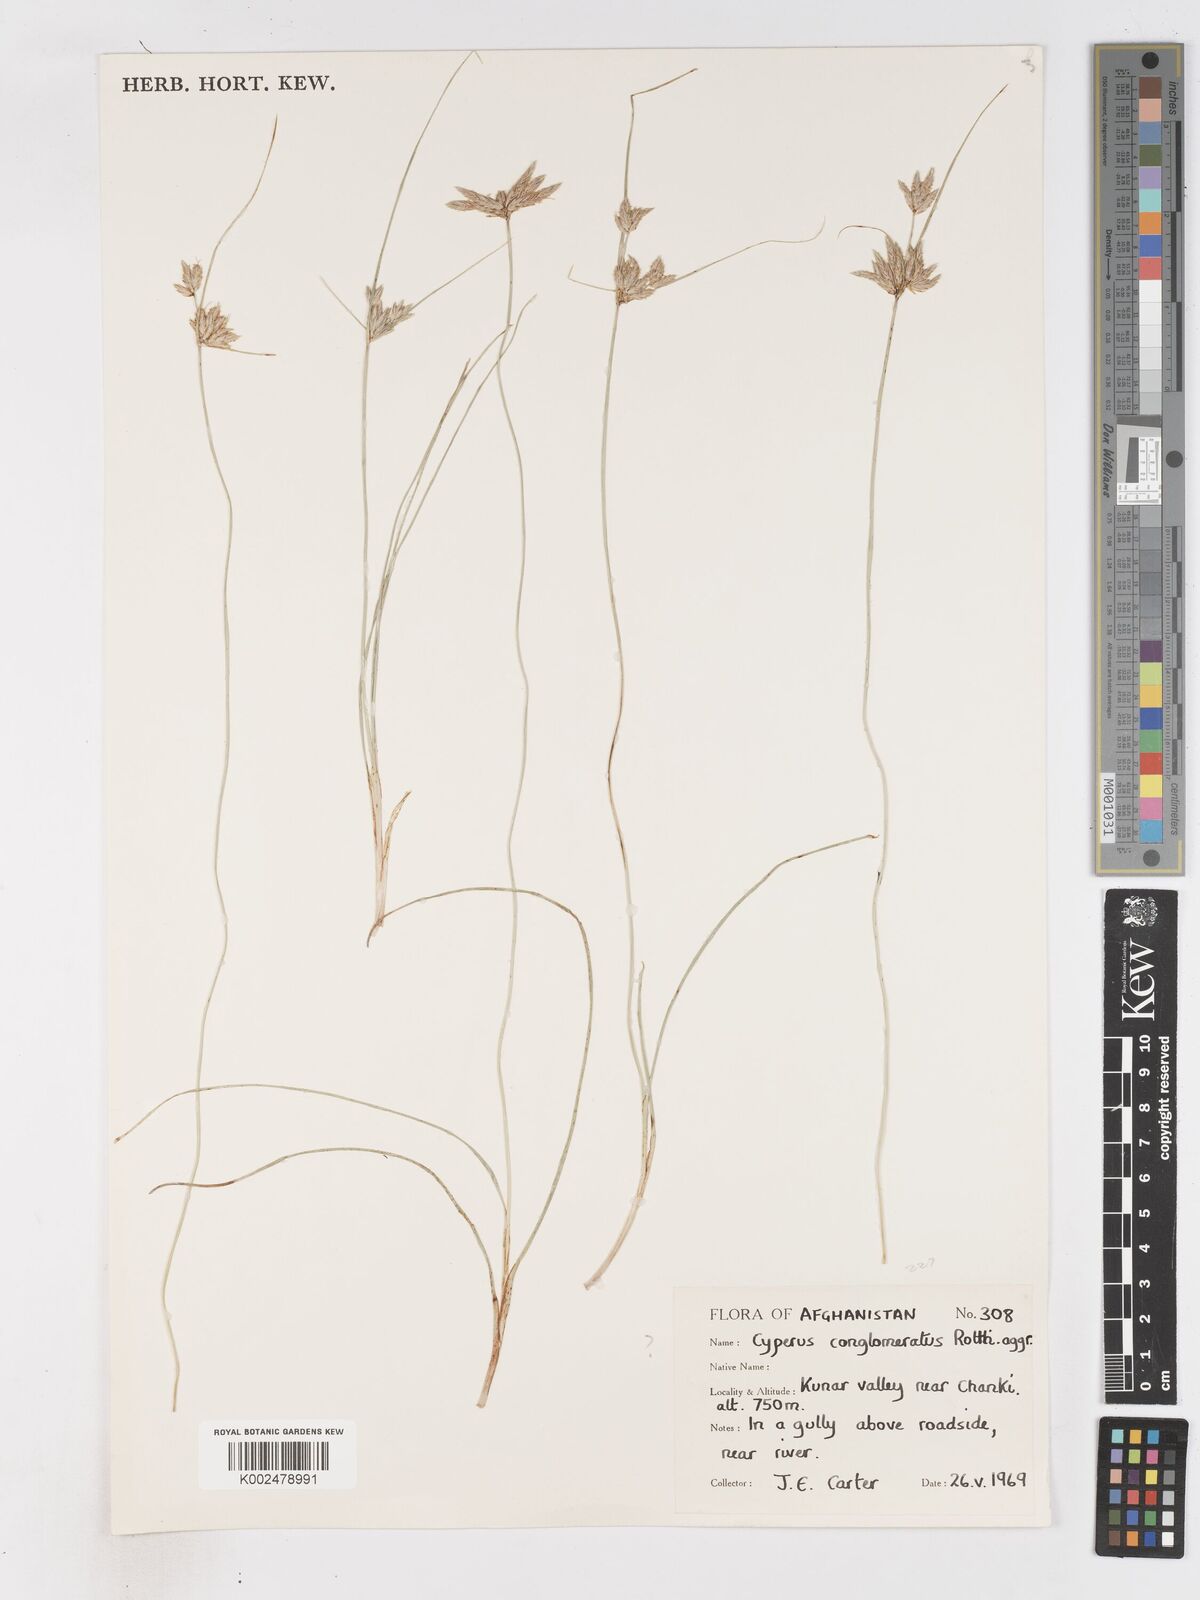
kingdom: Plantae
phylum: Tracheophyta
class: Liliopsida
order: Poales
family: Cyperaceae
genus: Cyperus
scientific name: Cyperus
